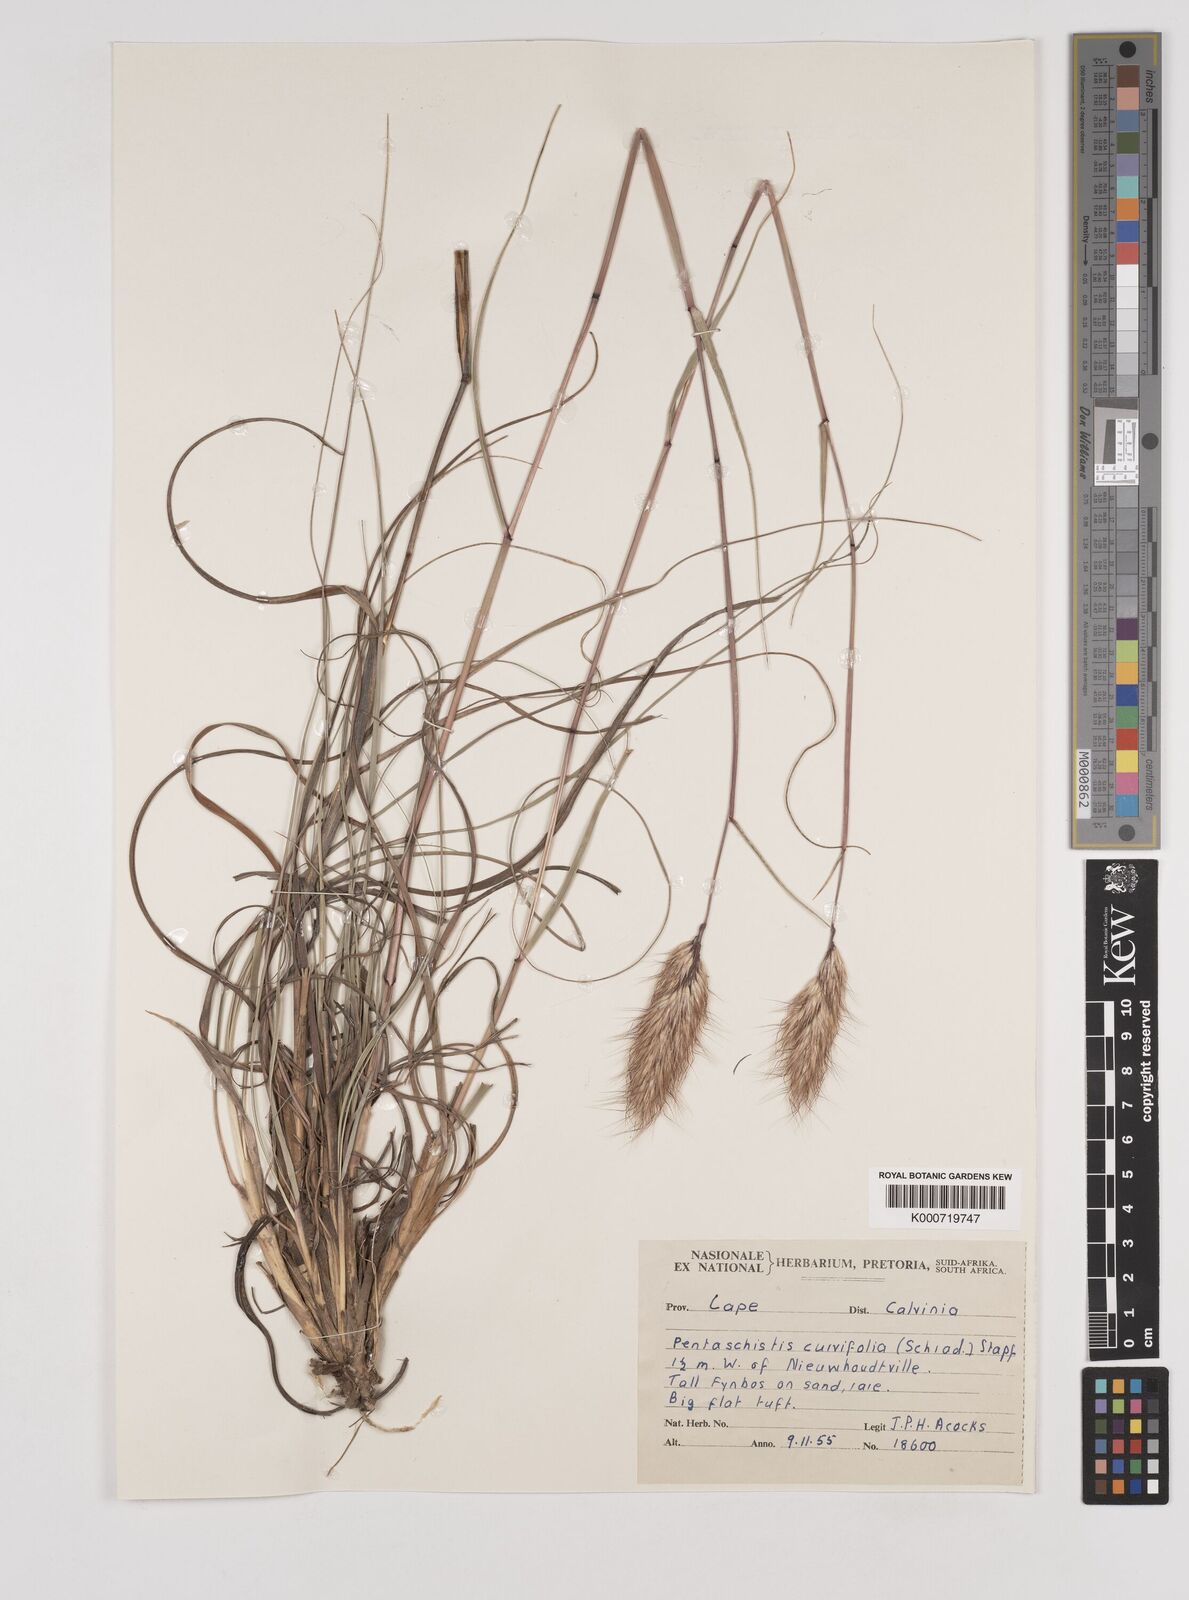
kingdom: Plantae
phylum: Tracheophyta
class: Liliopsida
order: Poales
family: Poaceae
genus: Pentameris
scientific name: Pentameris curvifolia
